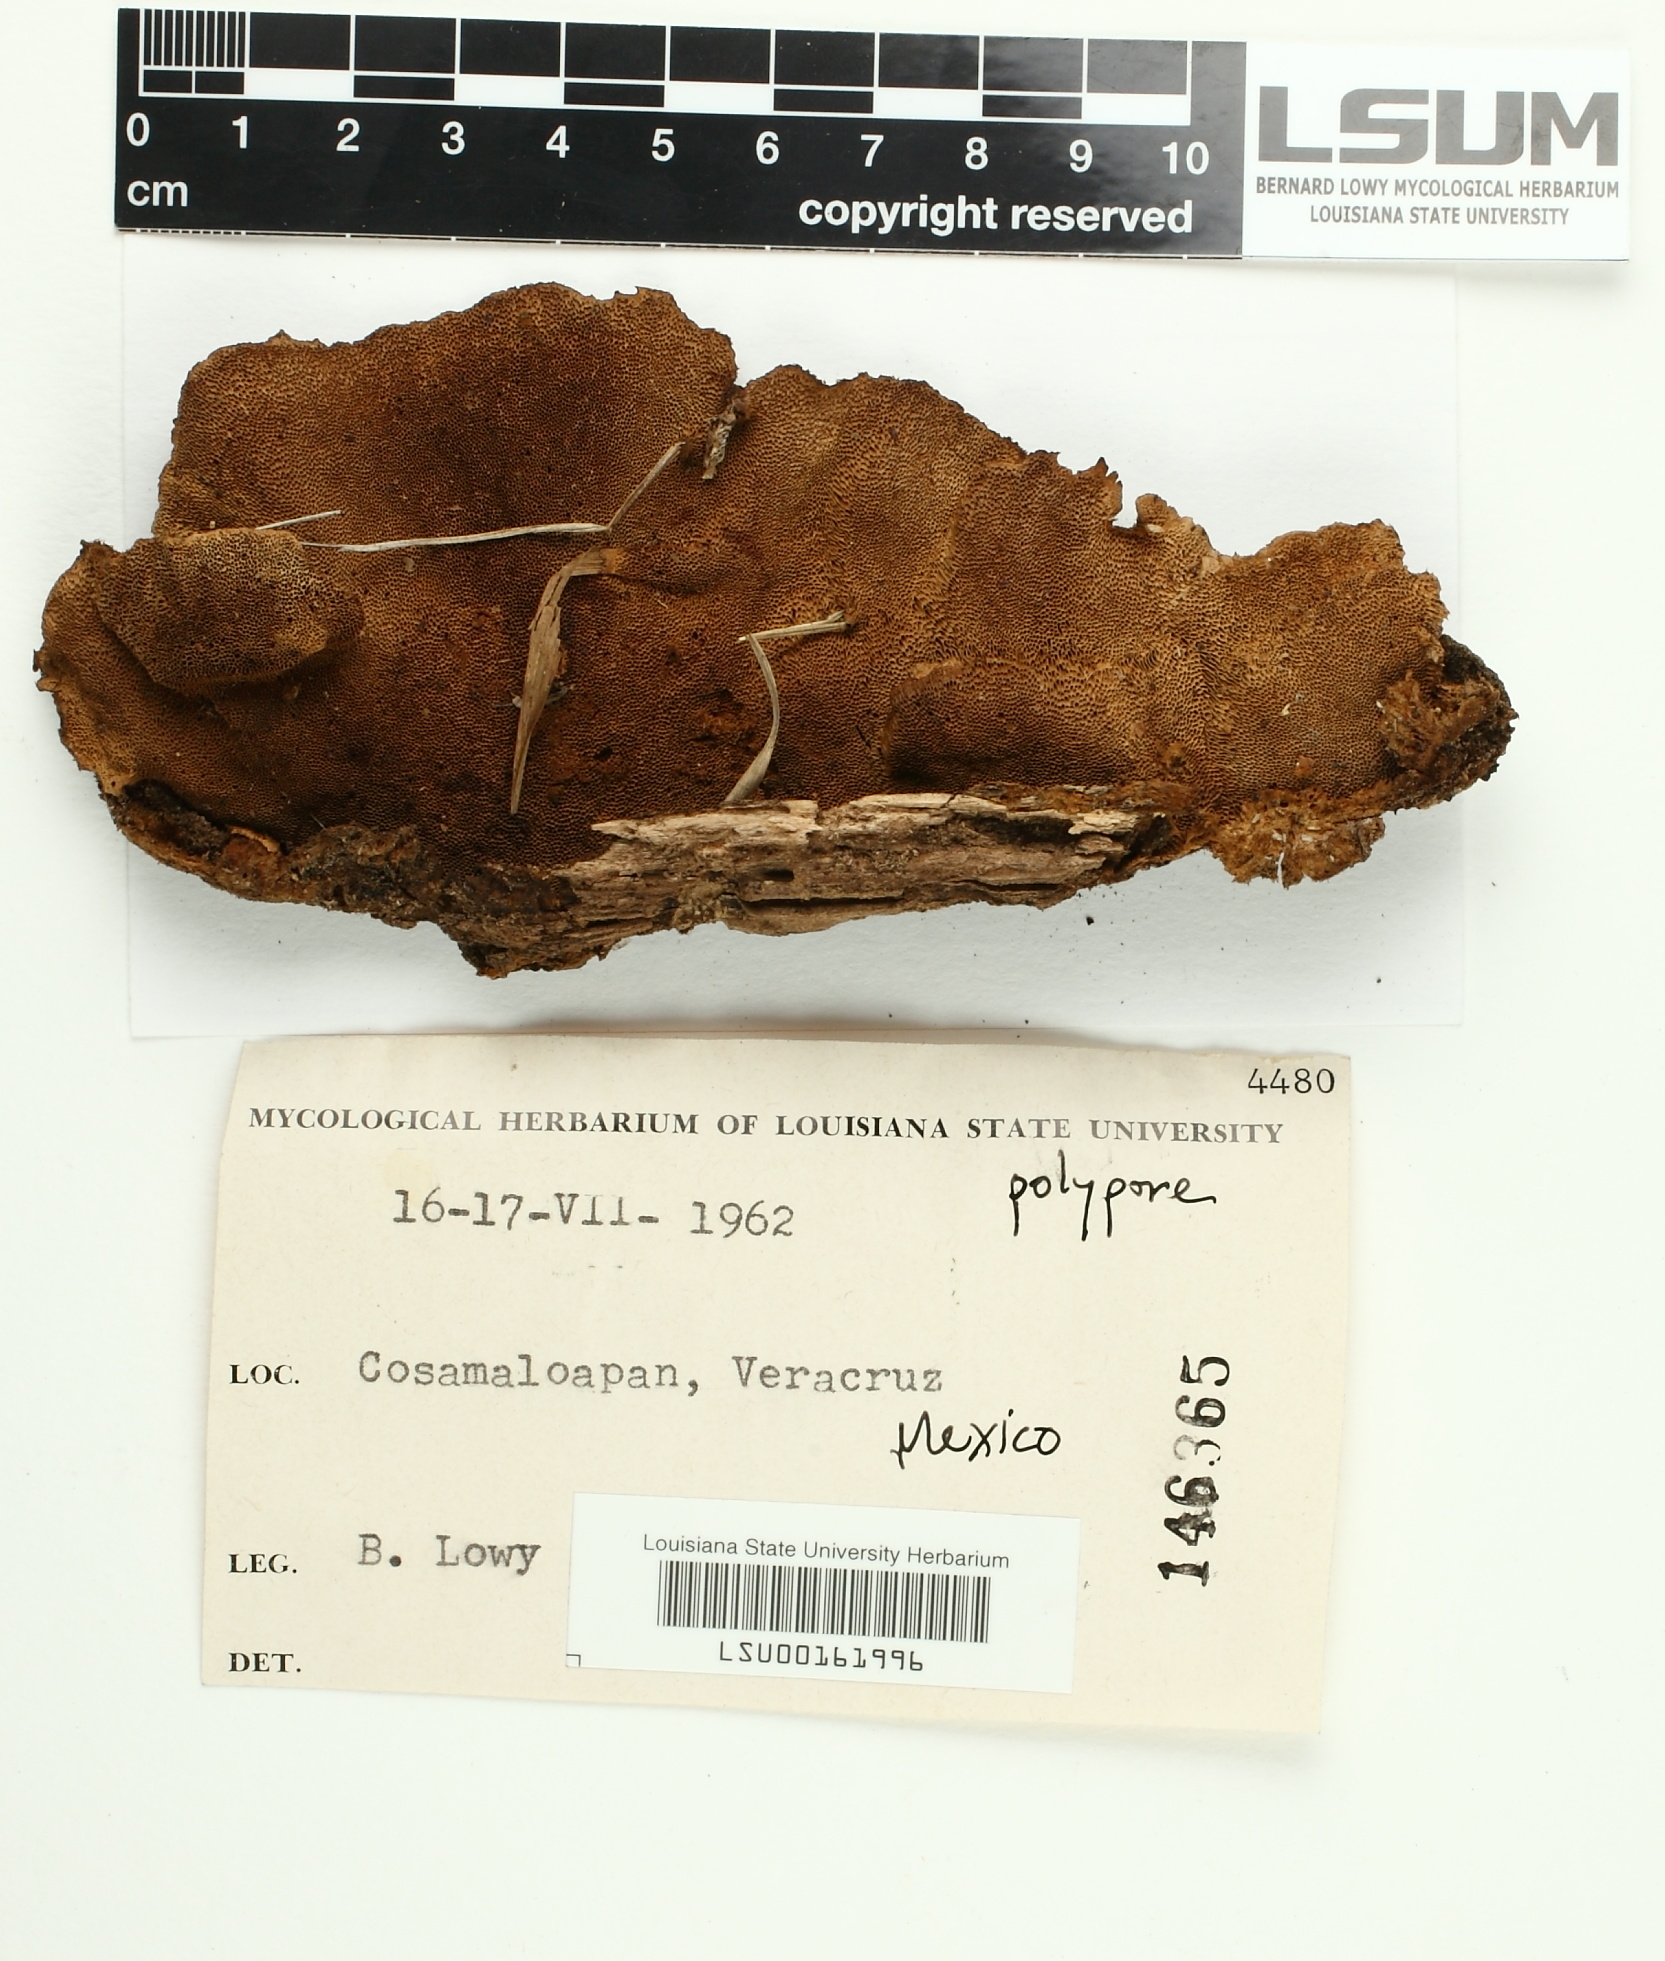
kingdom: Fungi
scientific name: Fungi
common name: Fungi
